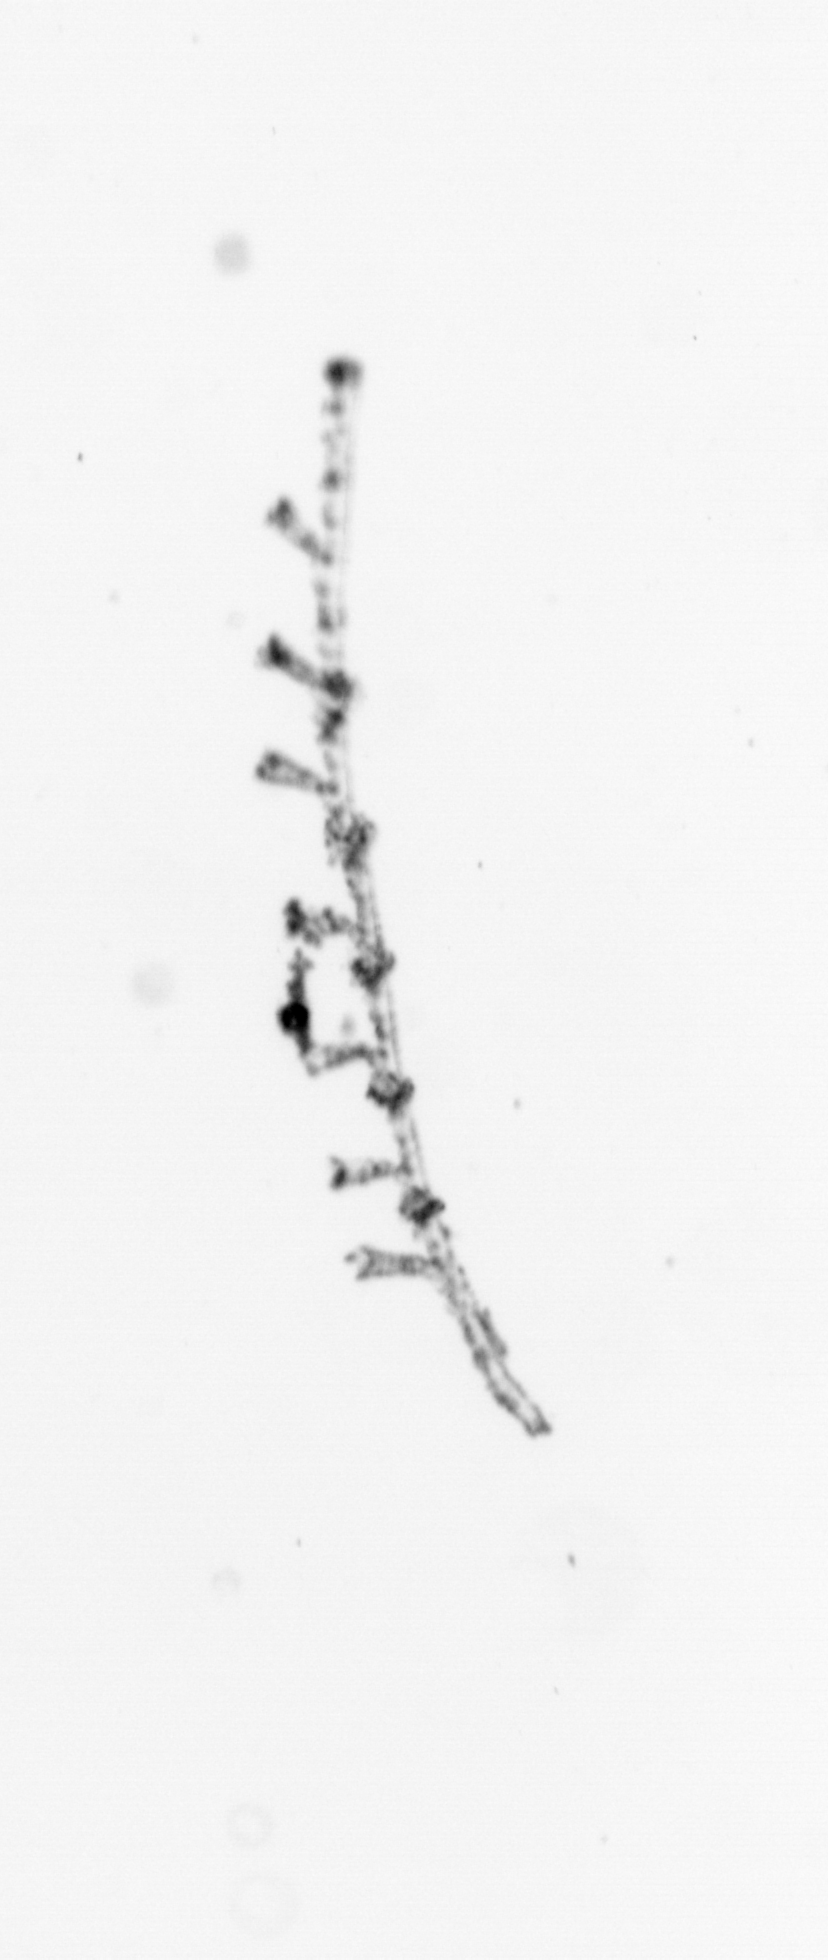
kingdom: Animalia
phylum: Cnidaria
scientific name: Cnidaria
